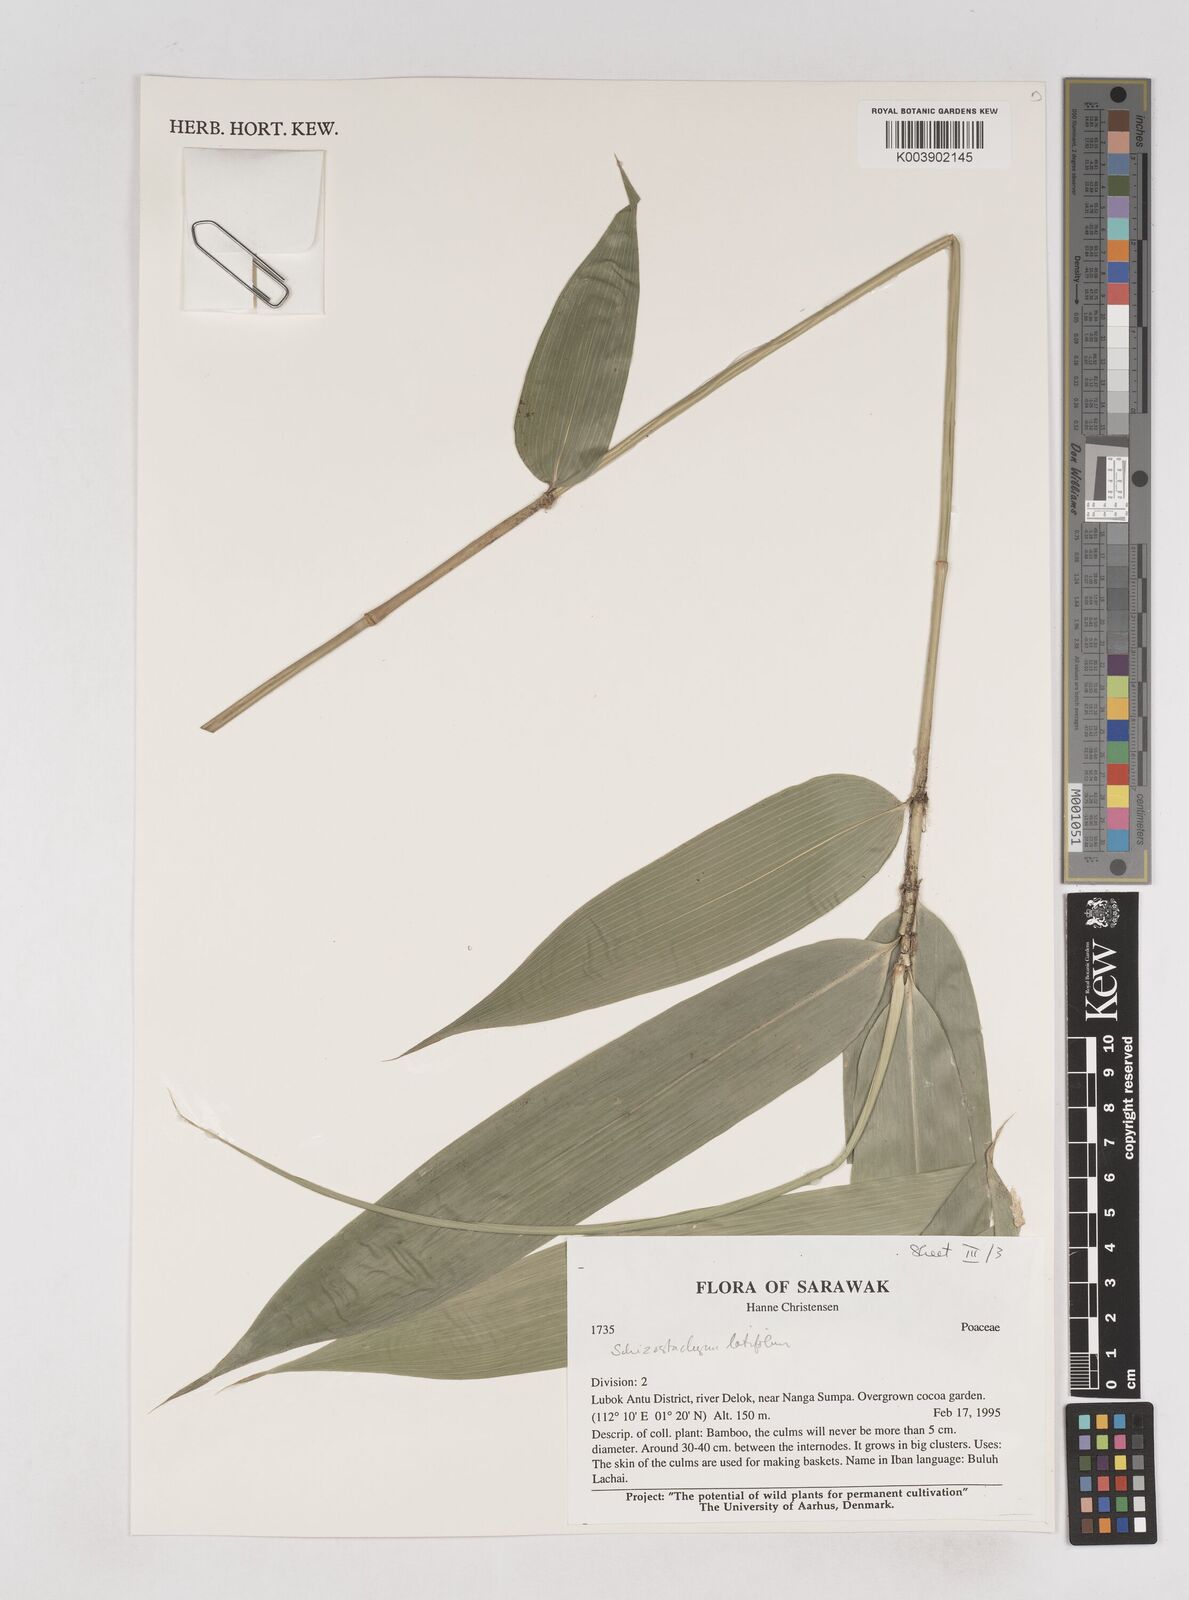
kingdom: Plantae
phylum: Tracheophyta
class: Liliopsida
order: Poales
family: Poaceae
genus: Schizostachyum
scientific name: Schizostachyum
